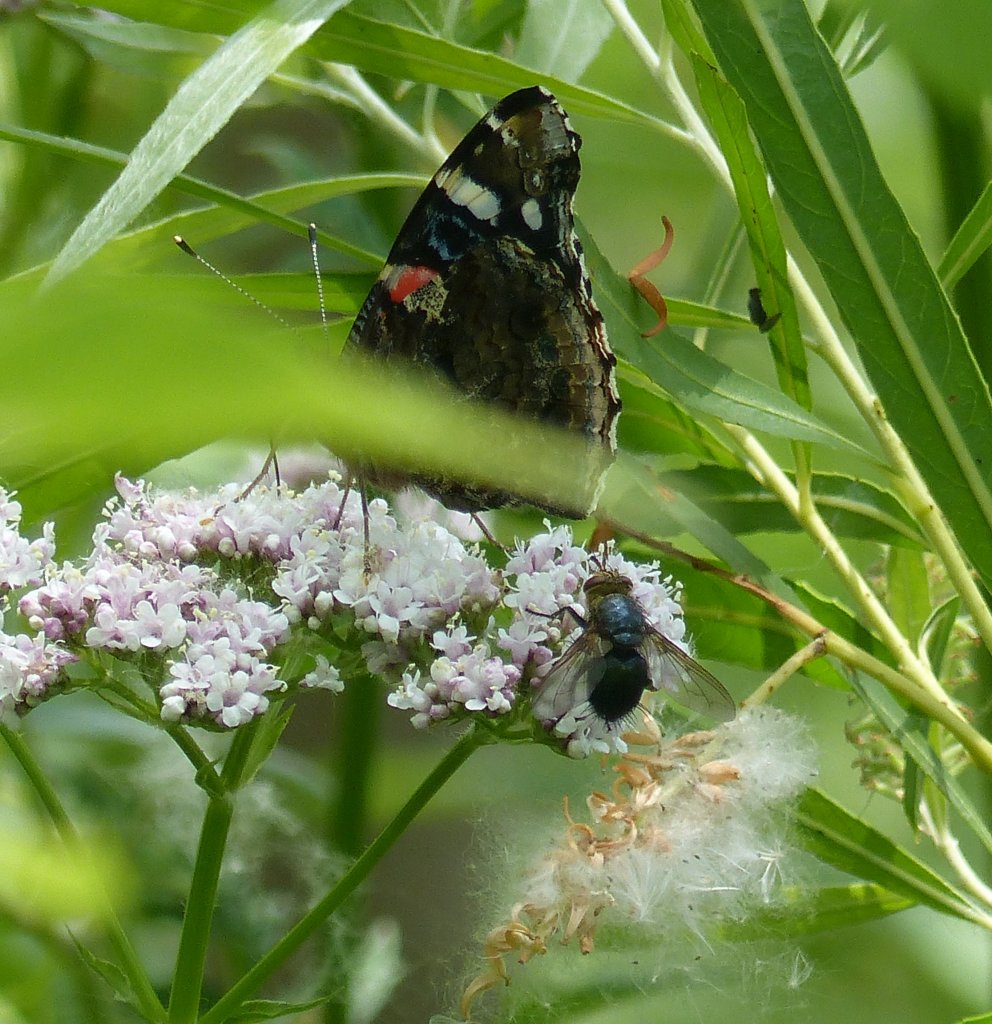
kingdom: Animalia
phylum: Arthropoda
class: Insecta
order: Lepidoptera
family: Nymphalidae
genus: Vanessa
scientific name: Vanessa atalanta
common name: Red Admiral
